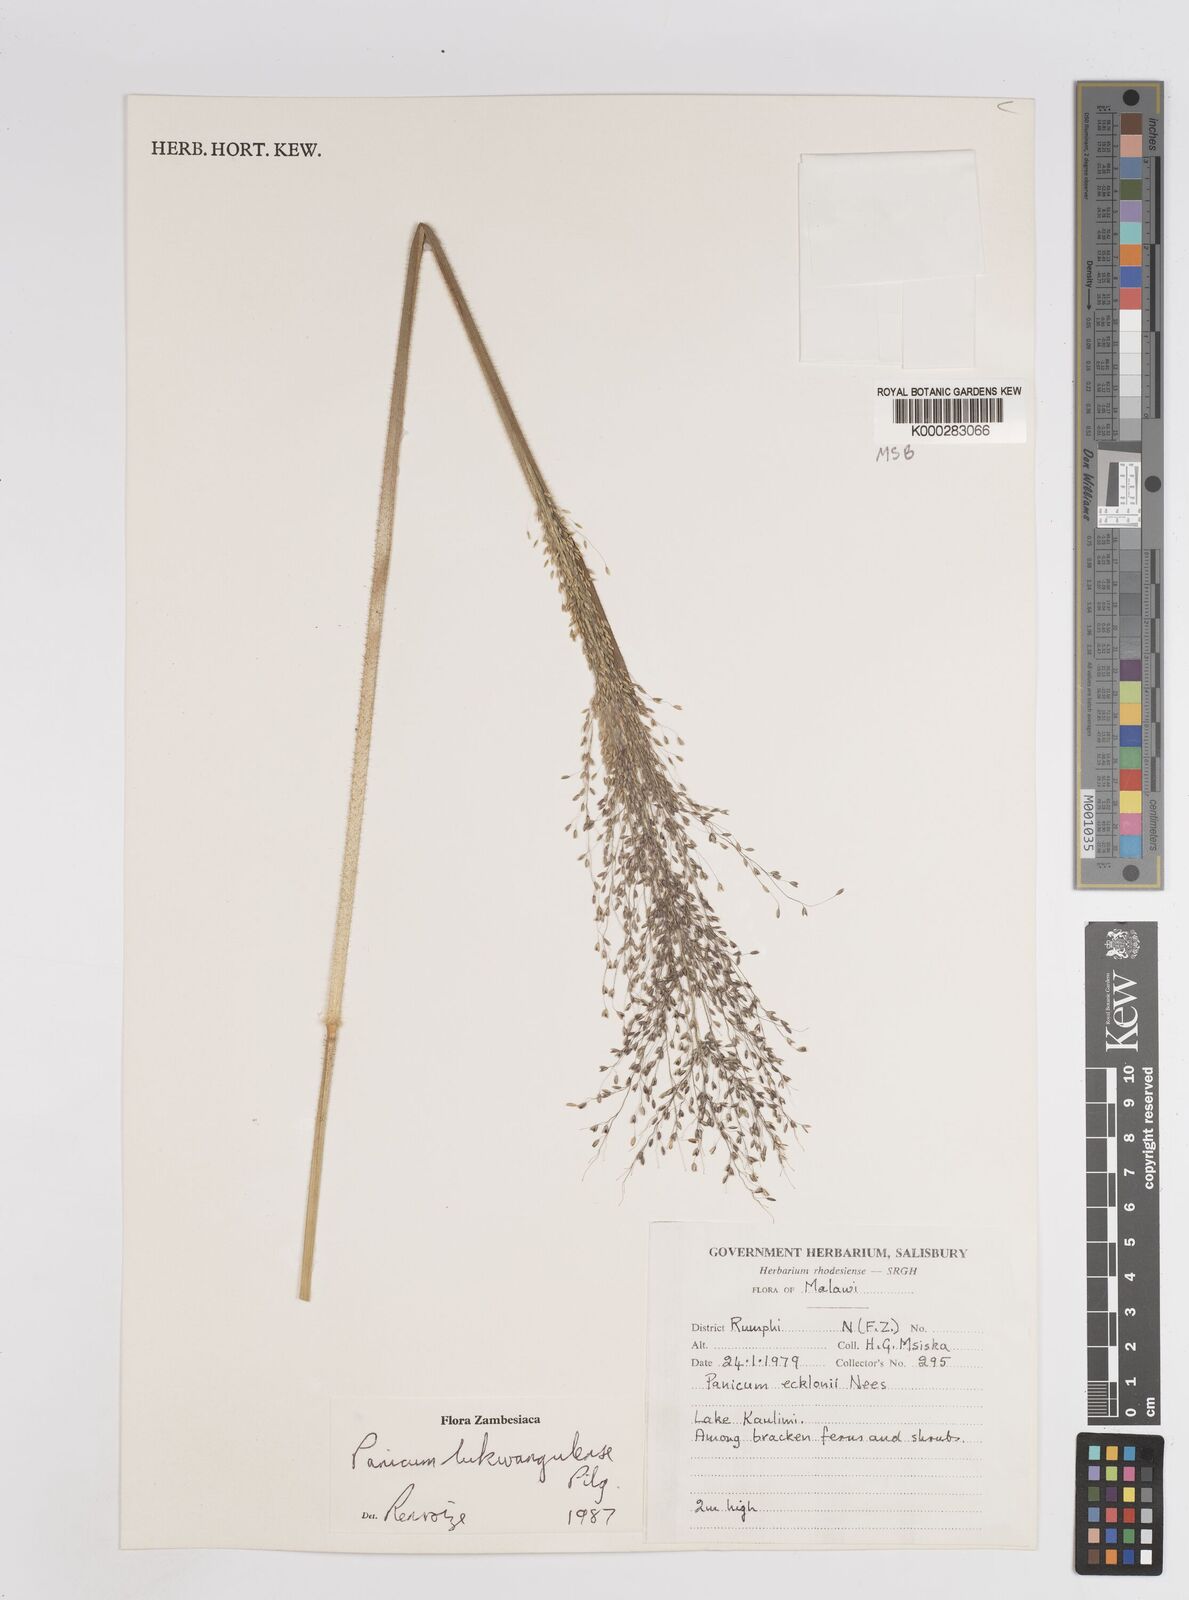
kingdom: Plantae
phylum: Tracheophyta
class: Liliopsida
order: Poales
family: Poaceae
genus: Adenochloa
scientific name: Adenochloa lukwangulense
